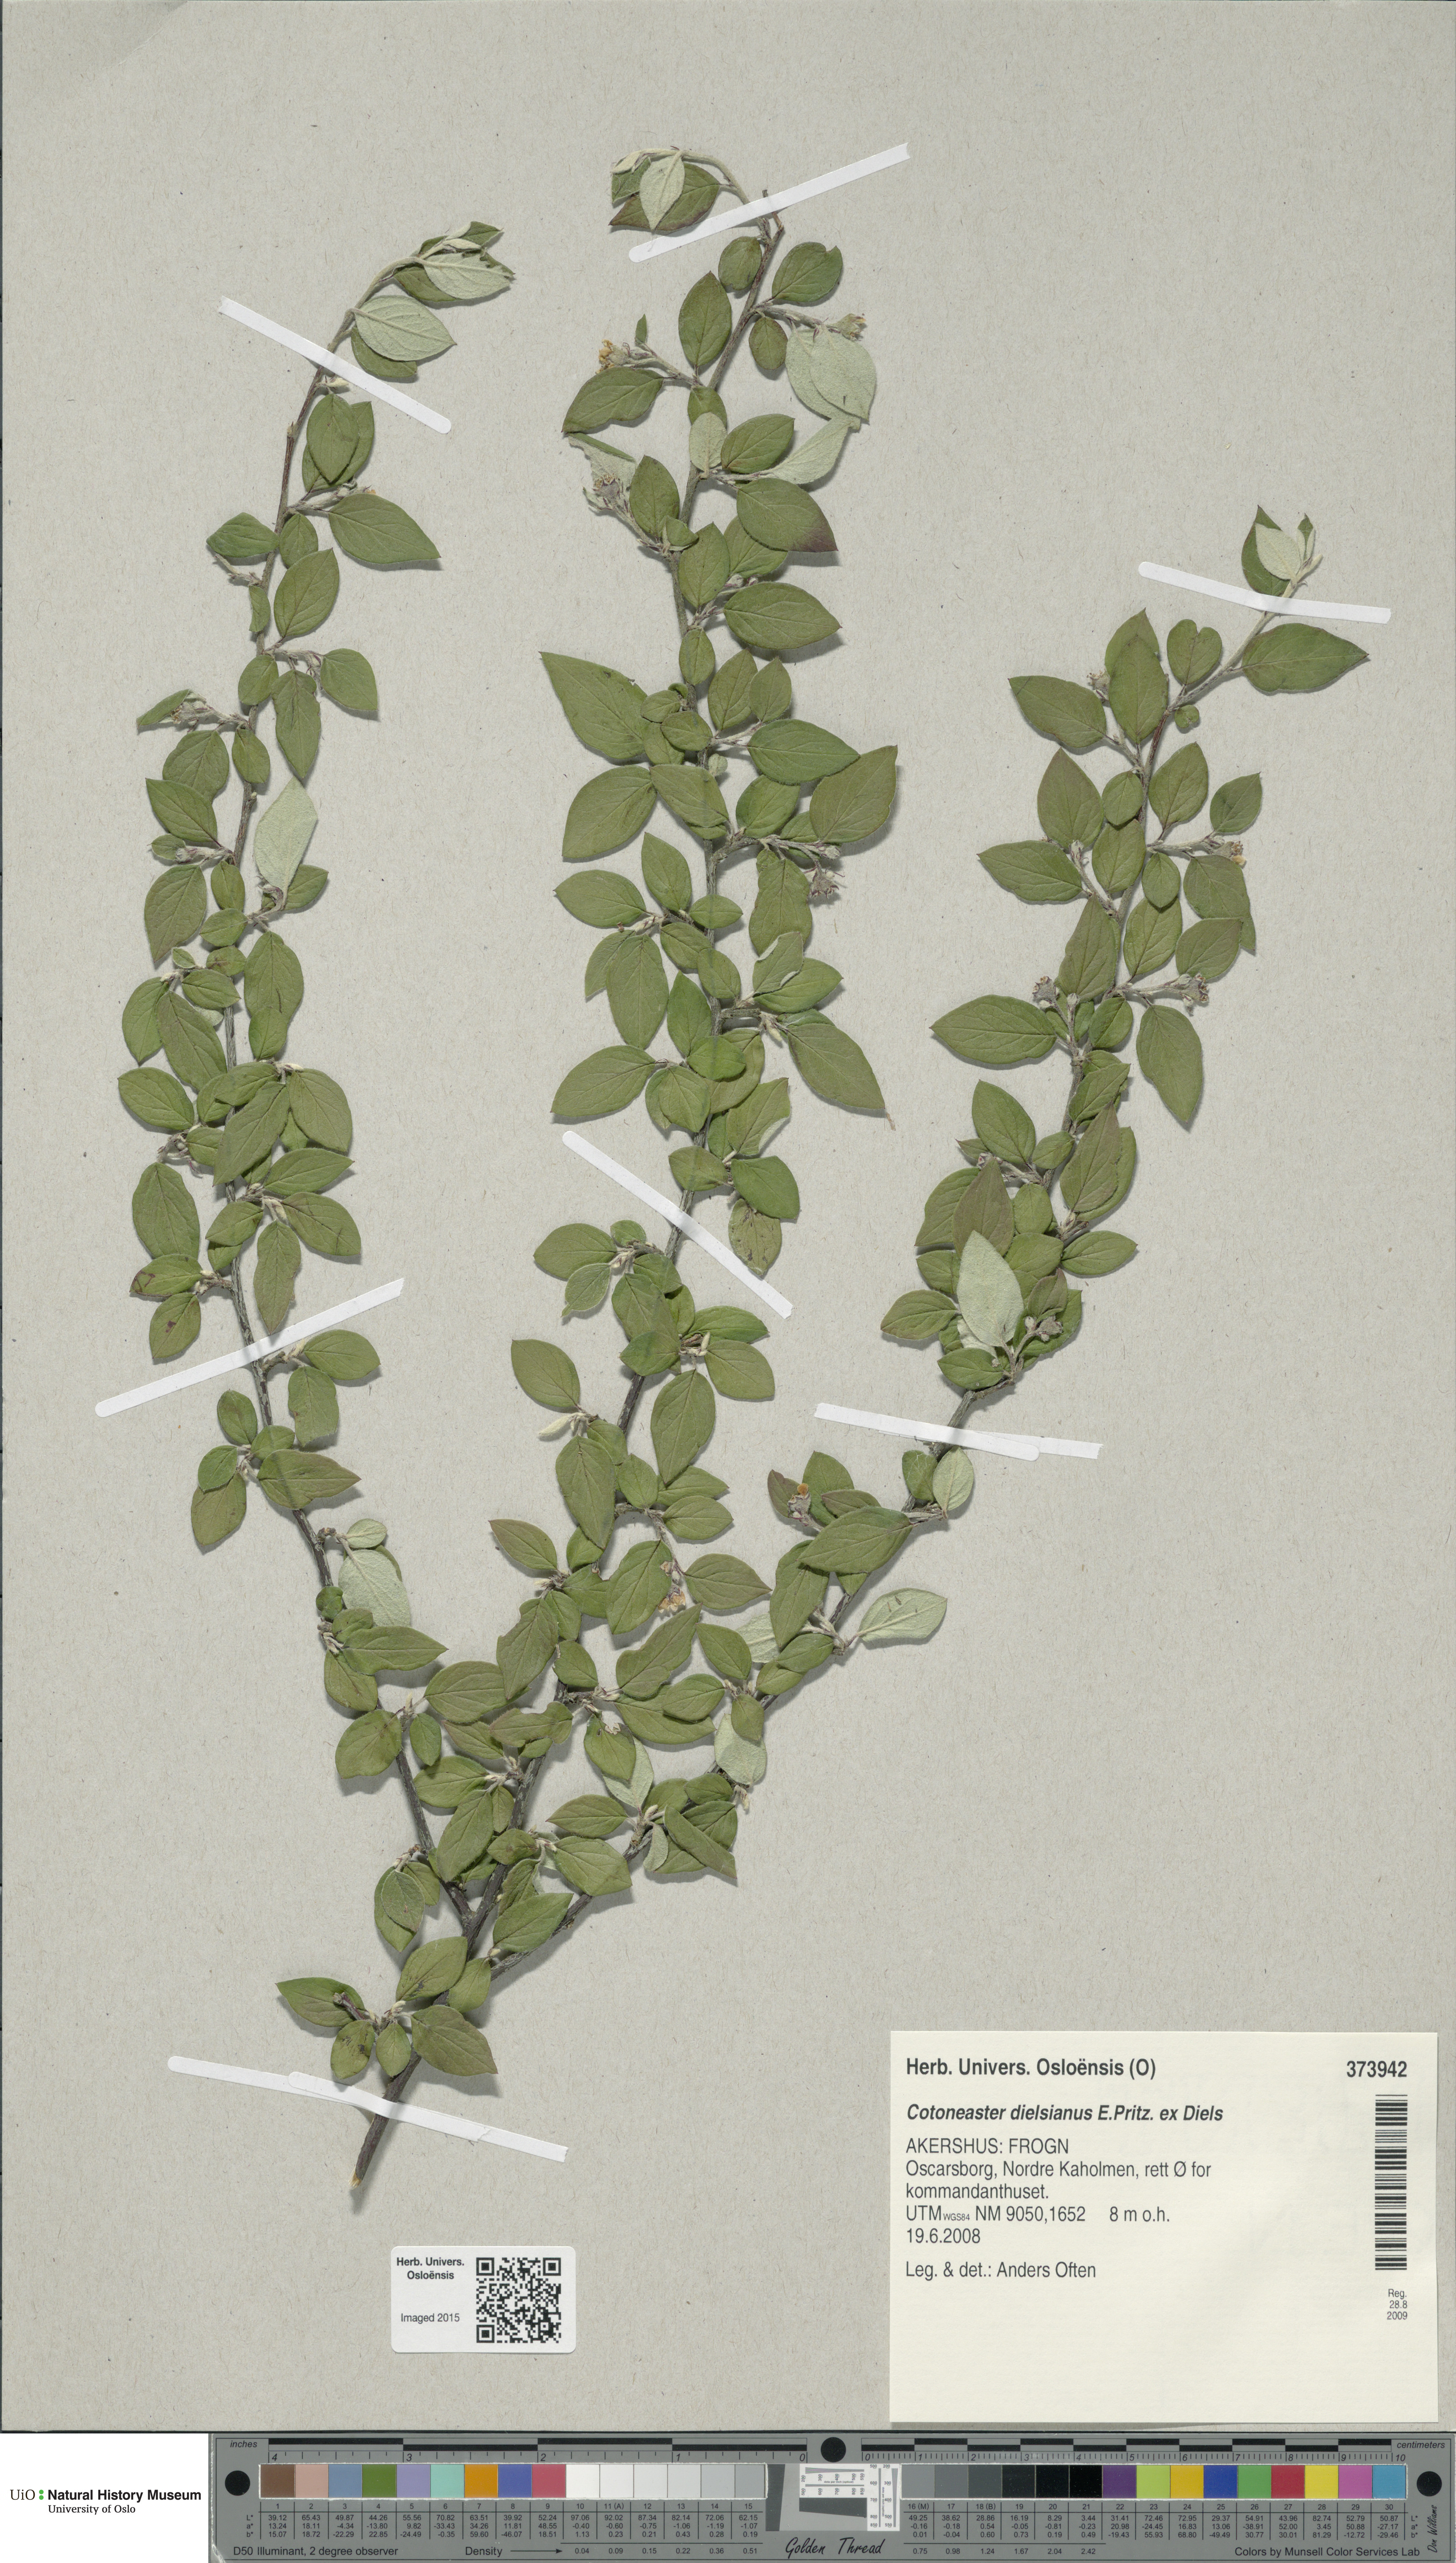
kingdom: Plantae
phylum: Tracheophyta
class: Magnoliopsida
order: Rosales
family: Rosaceae
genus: Cotoneaster
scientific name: Cotoneaster dielsianus
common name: Diels's cotoneaster
